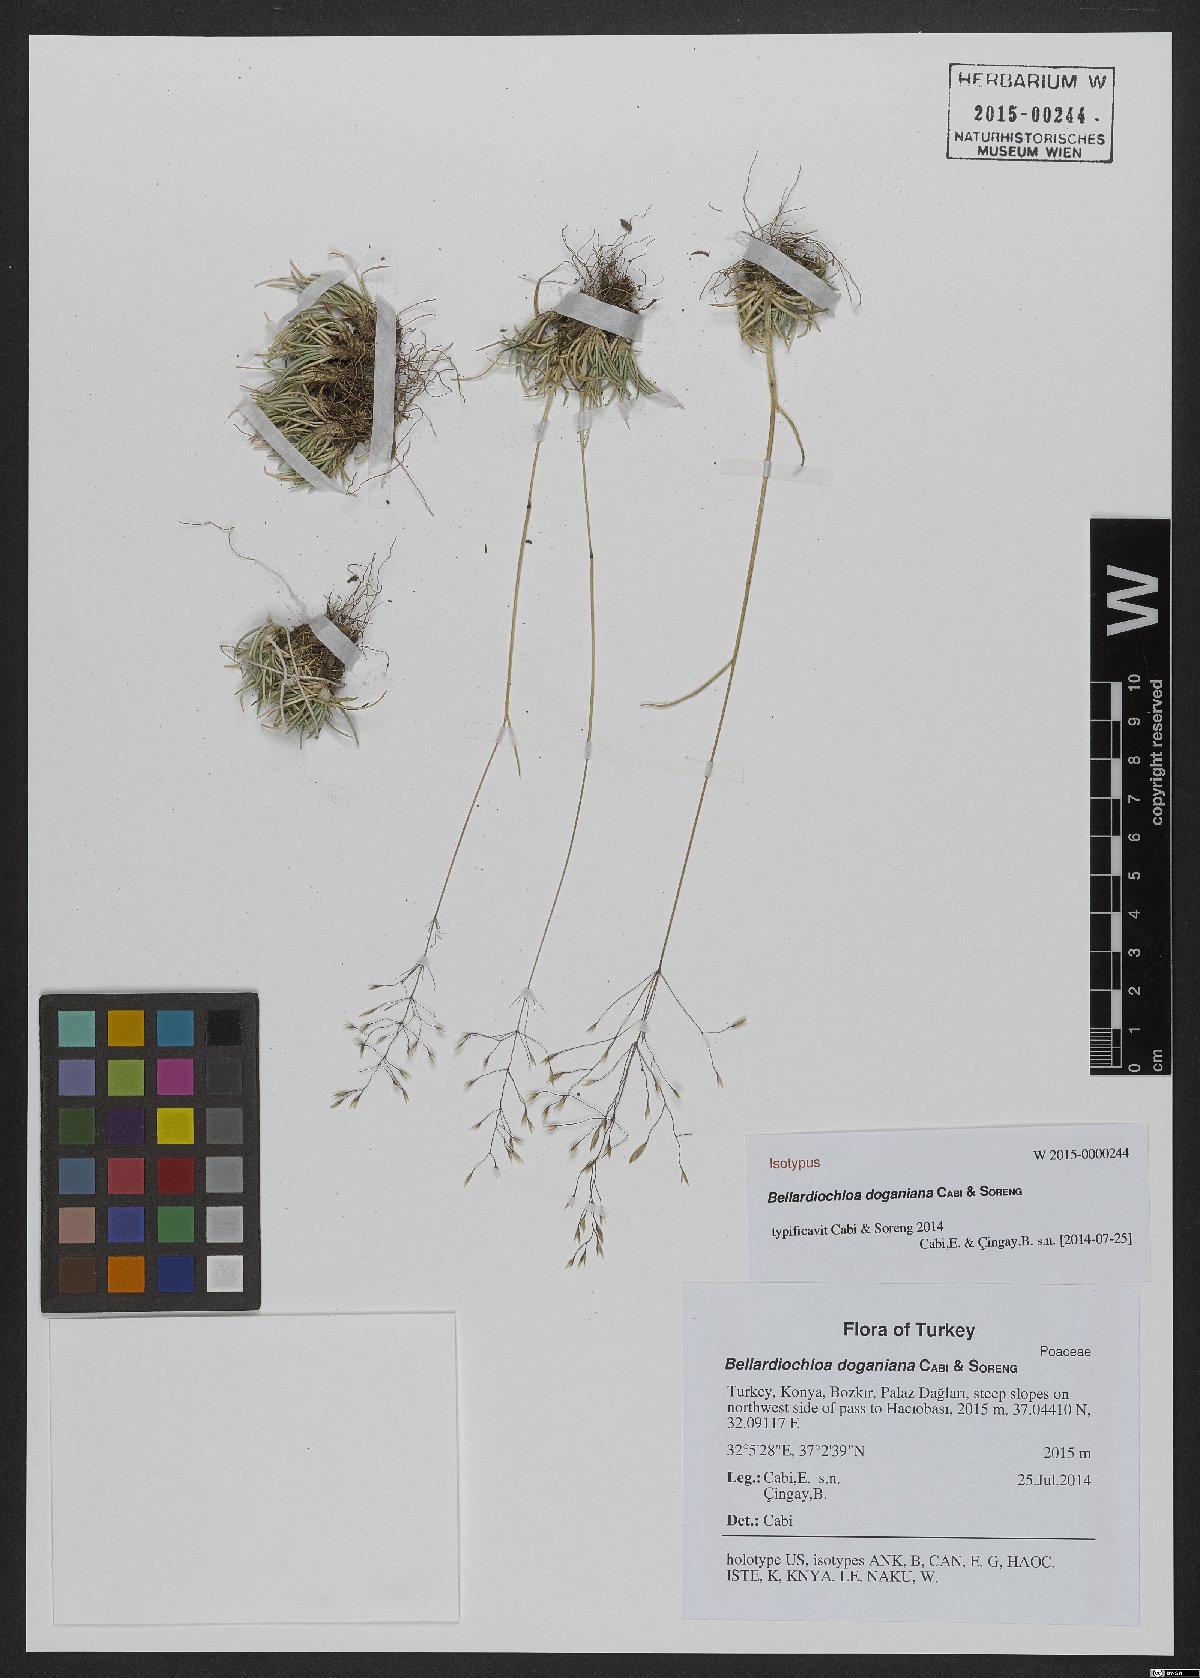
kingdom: Plantae
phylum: Tracheophyta
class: Liliopsida
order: Poales
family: Poaceae
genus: Bellardiochloa
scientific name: Bellardiochloa doganiana
